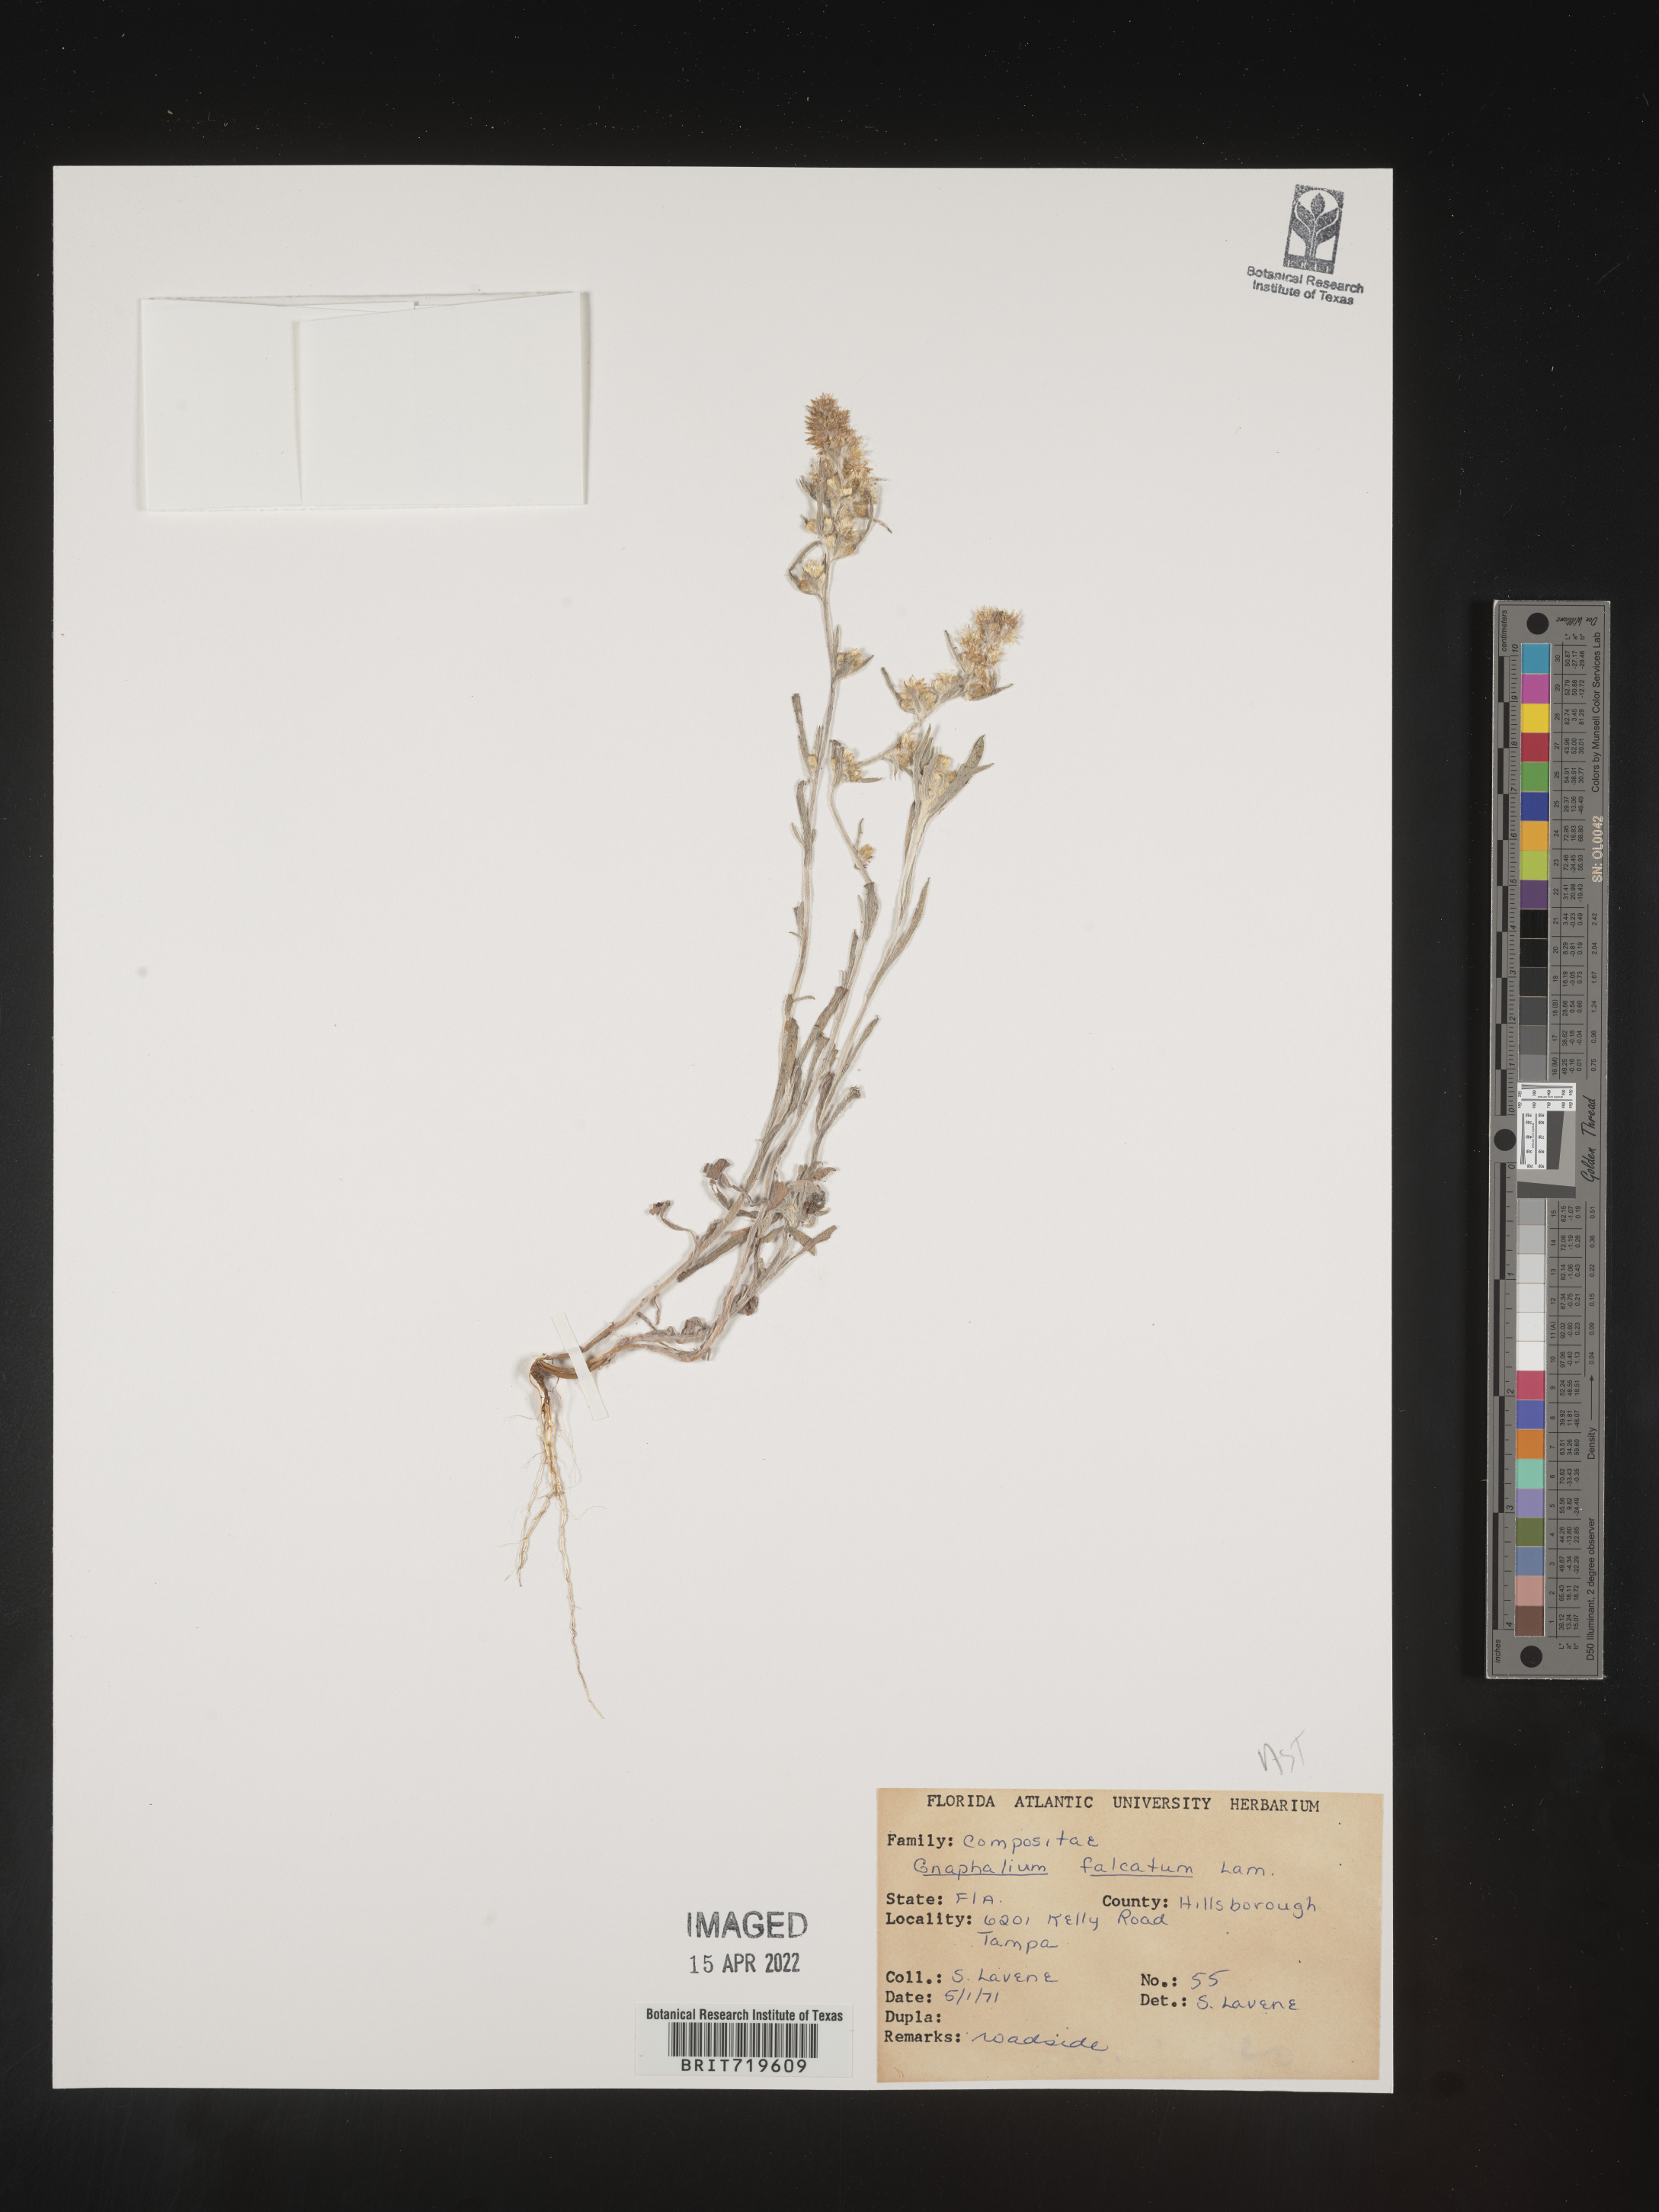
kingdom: Plantae
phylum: Tracheophyta
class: Magnoliopsida
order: Asterales
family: Asteraceae
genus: Gamochaeta
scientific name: Gamochaeta antillana
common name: Delicate everlasting
